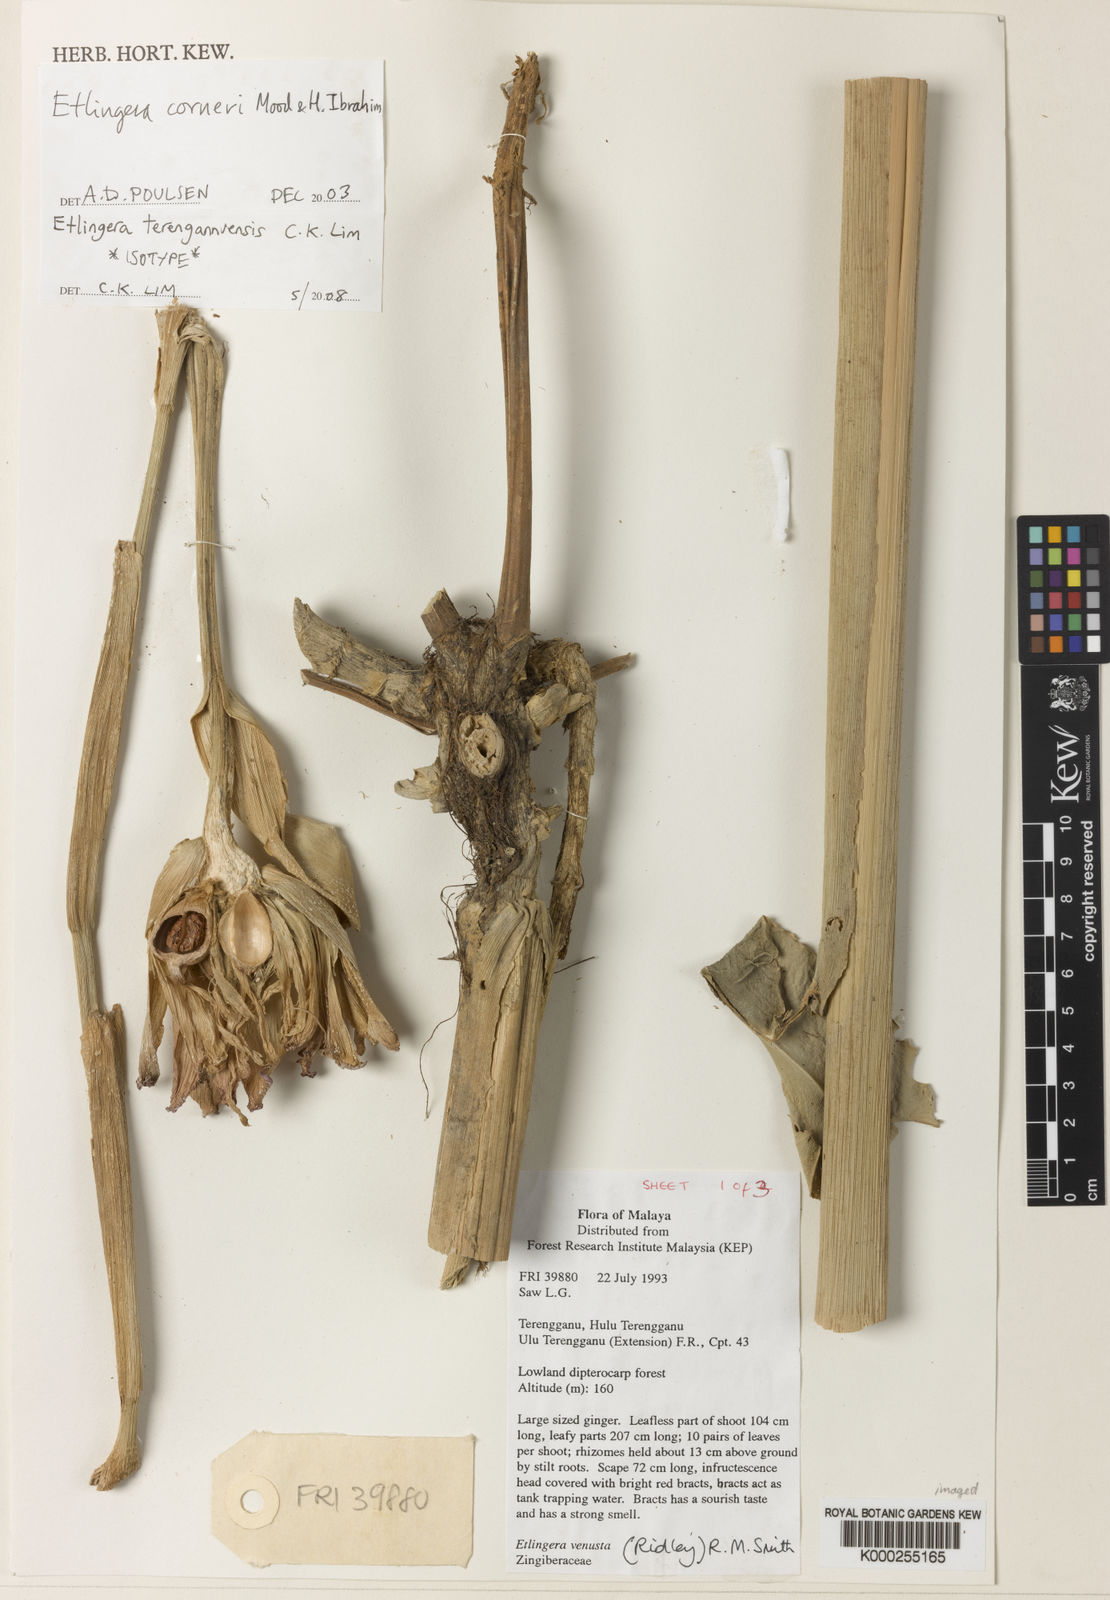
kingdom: Plantae
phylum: Tracheophyta
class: Liliopsida
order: Zingiberales
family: Zingiberaceae
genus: Etlingera
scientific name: Etlingera corneri
